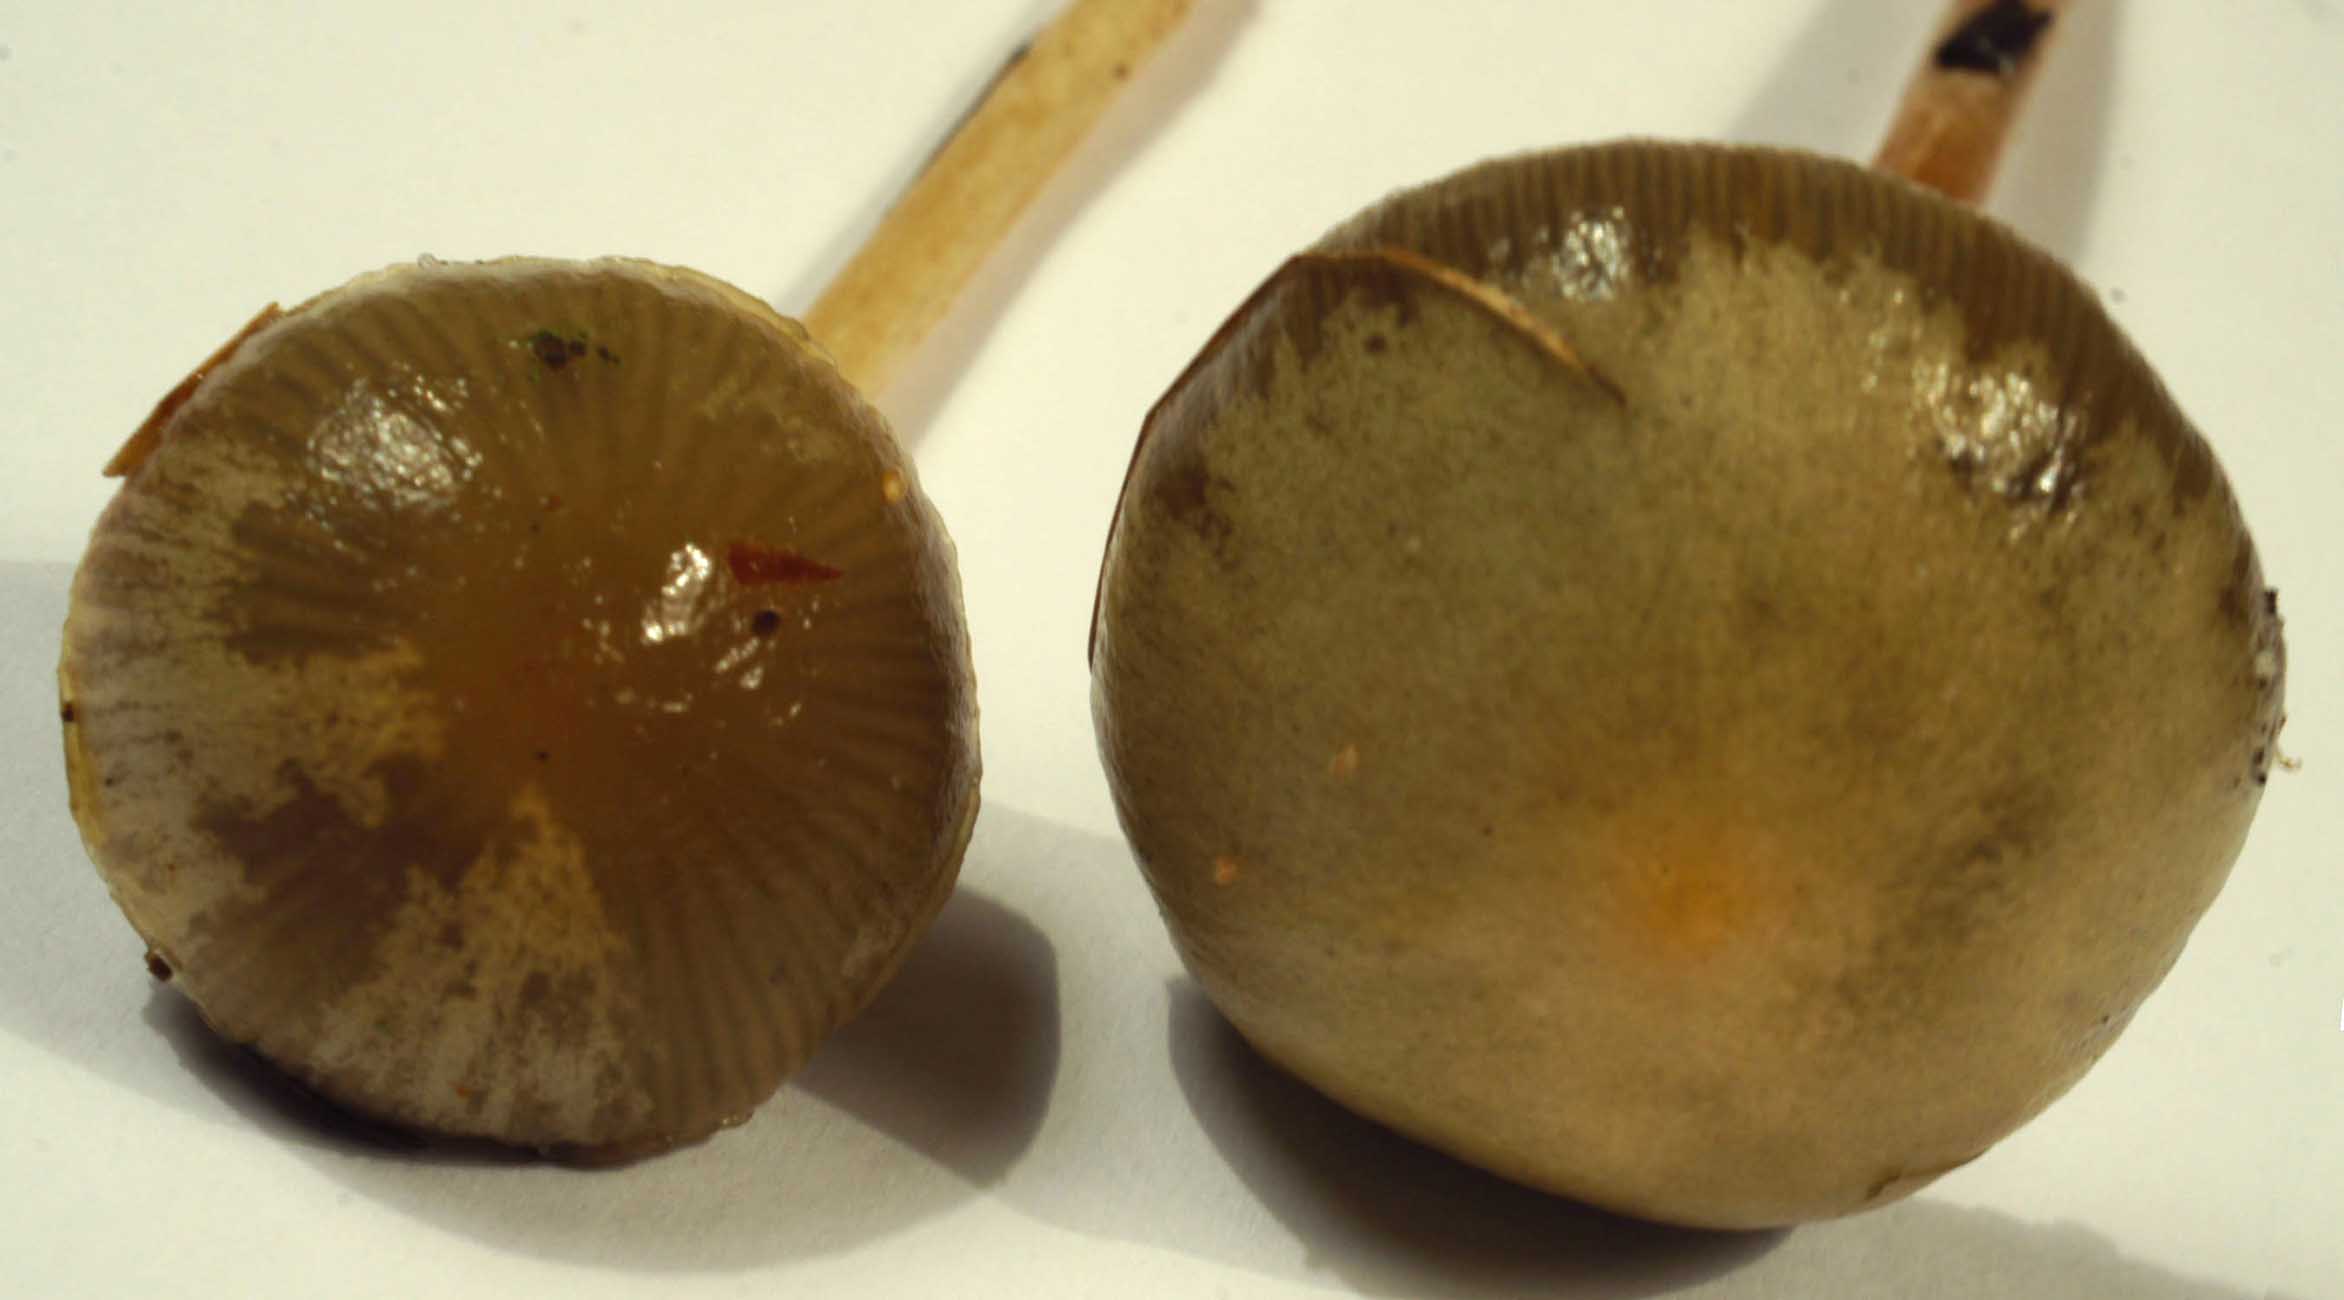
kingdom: Fungi
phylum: Basidiomycota
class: Agaricomycetes
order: Agaricales
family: Strophariaceae
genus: Protostropharia
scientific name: Protostropharia semiglobata
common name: halvkugleformet bredblad
